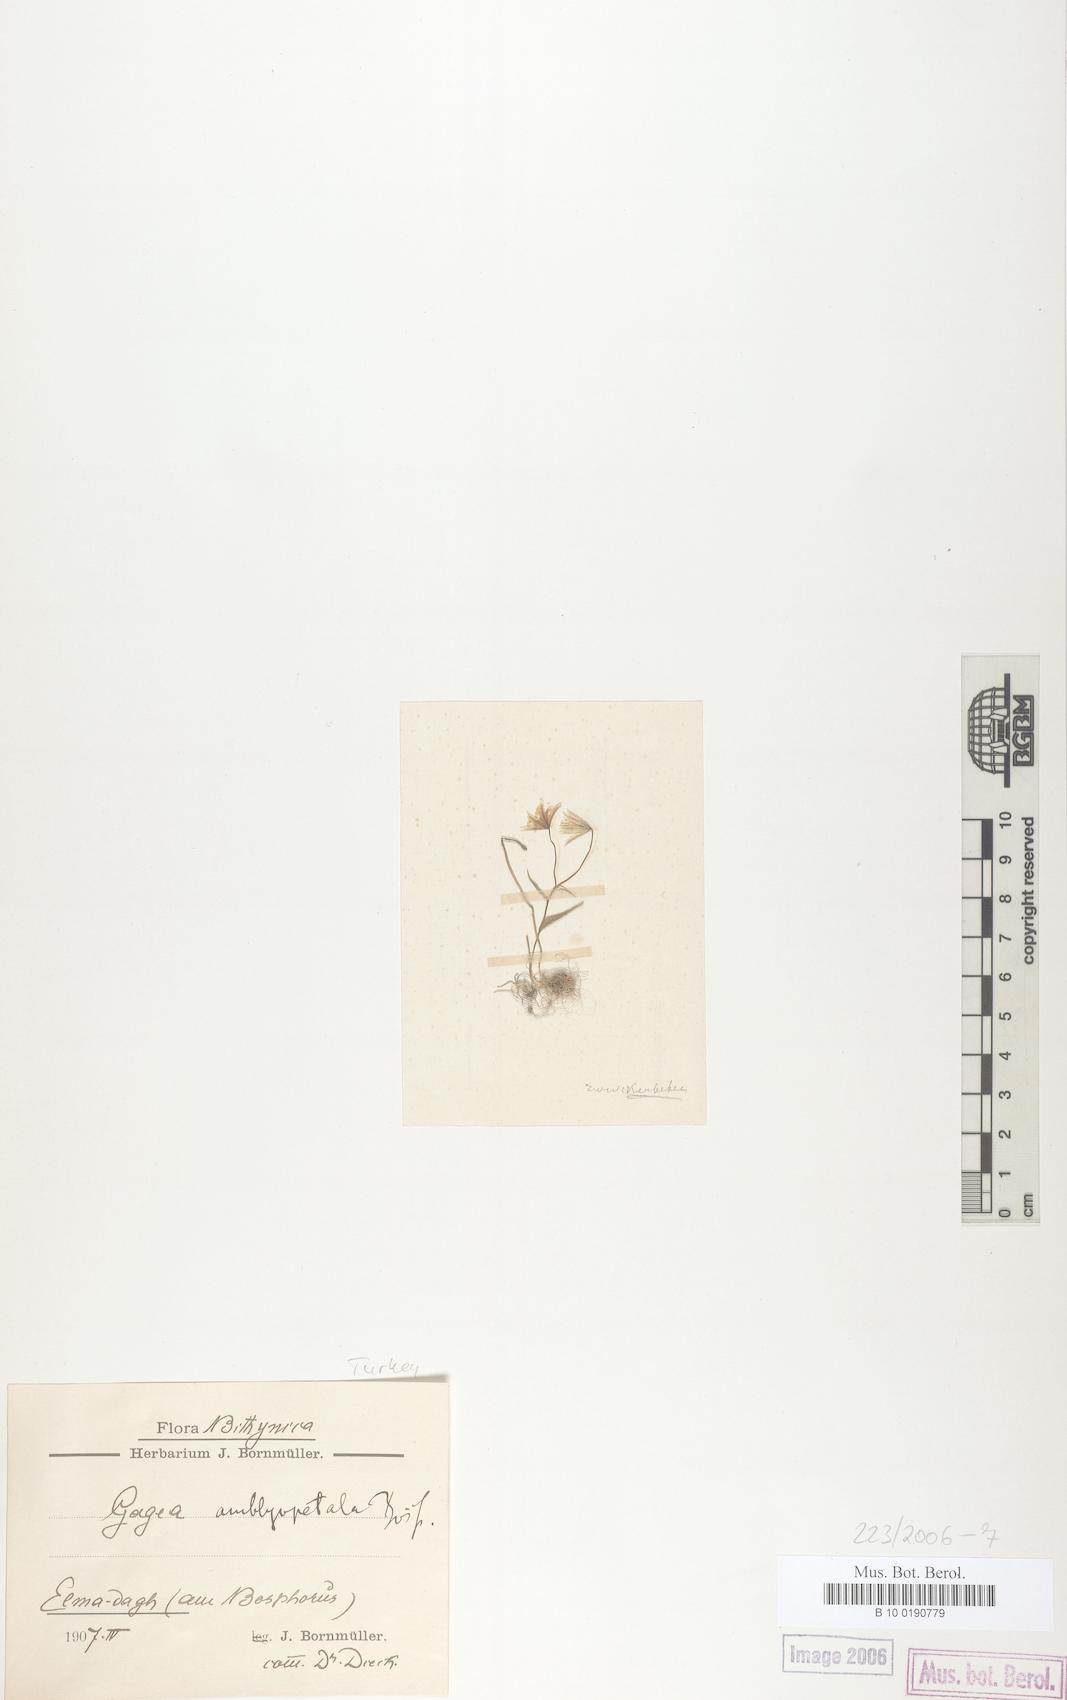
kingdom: Plantae
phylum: Tracheophyta
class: Liliopsida
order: Liliales
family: Liliaceae
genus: Gagea
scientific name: Gagea amblyopetala
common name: Blunt-flowered gagea
